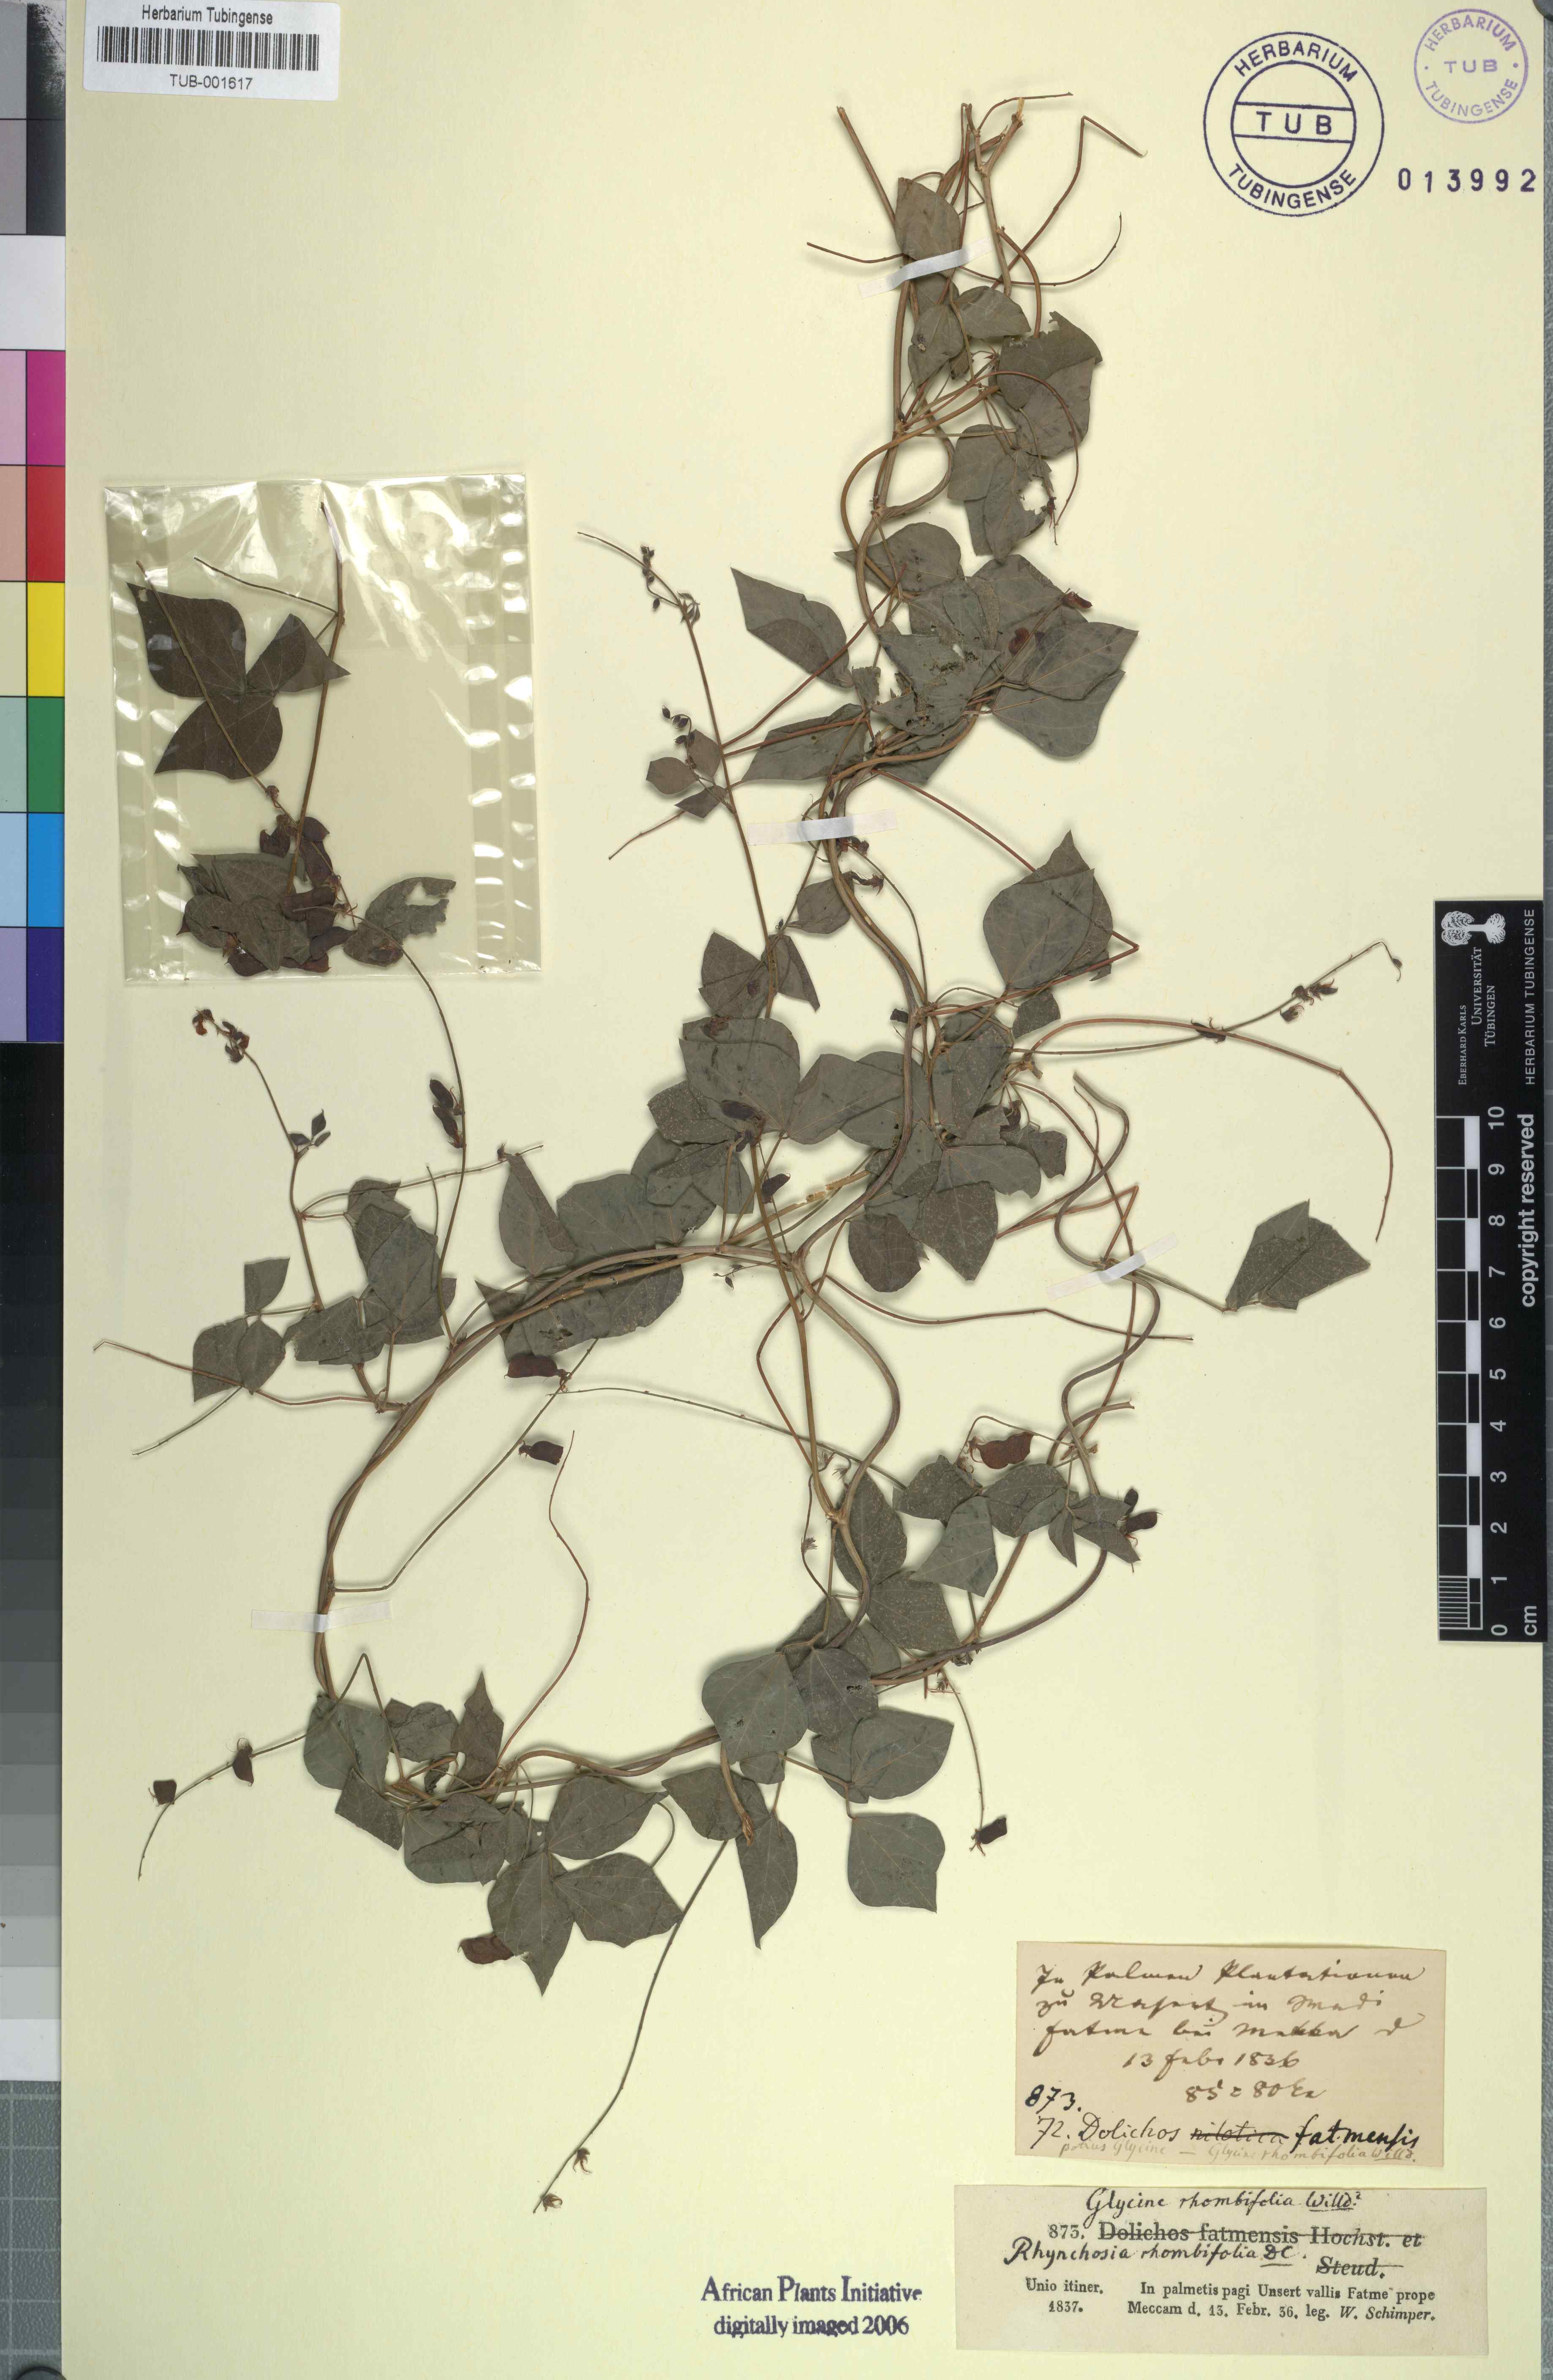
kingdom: Plantae
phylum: Tracheophyta
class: Magnoliopsida
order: Fabales
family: Fabaceae
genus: Rhynchosia
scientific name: Rhynchosia minima
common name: Least snoutbean
